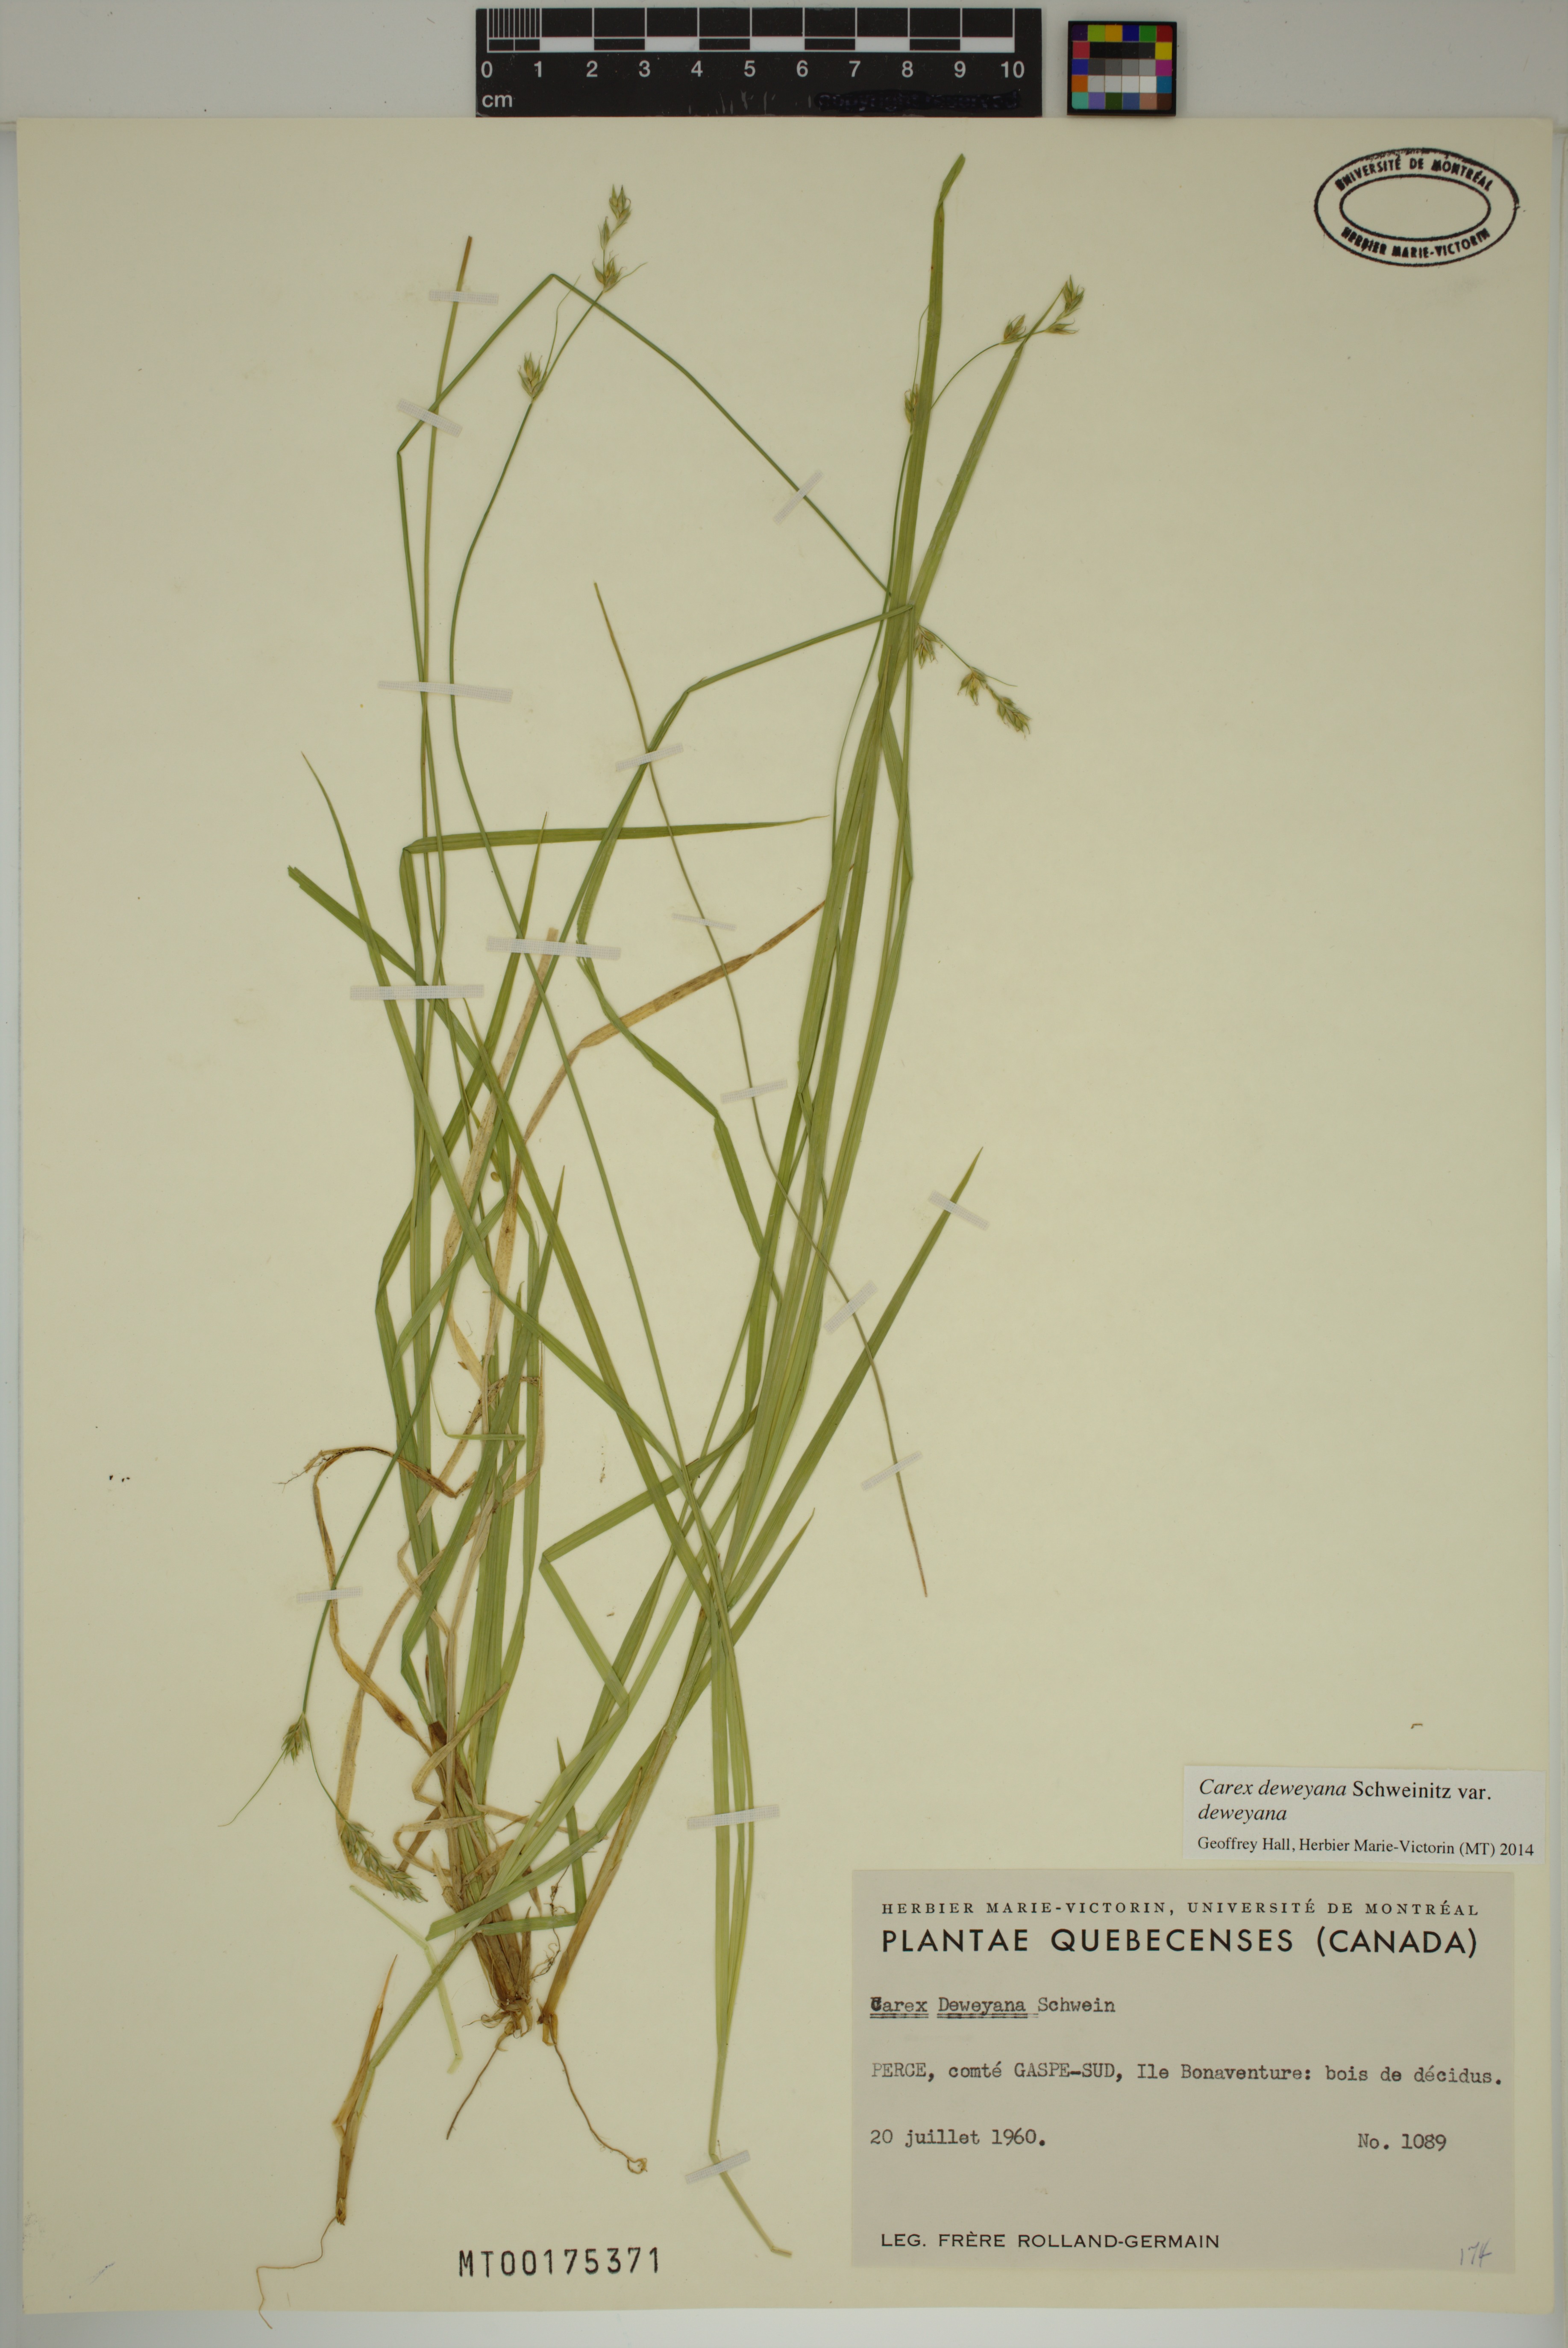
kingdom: Plantae
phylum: Tracheophyta
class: Liliopsida
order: Poales
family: Cyperaceae
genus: Carex
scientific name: Carex deweyana
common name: Dewey's sedge
